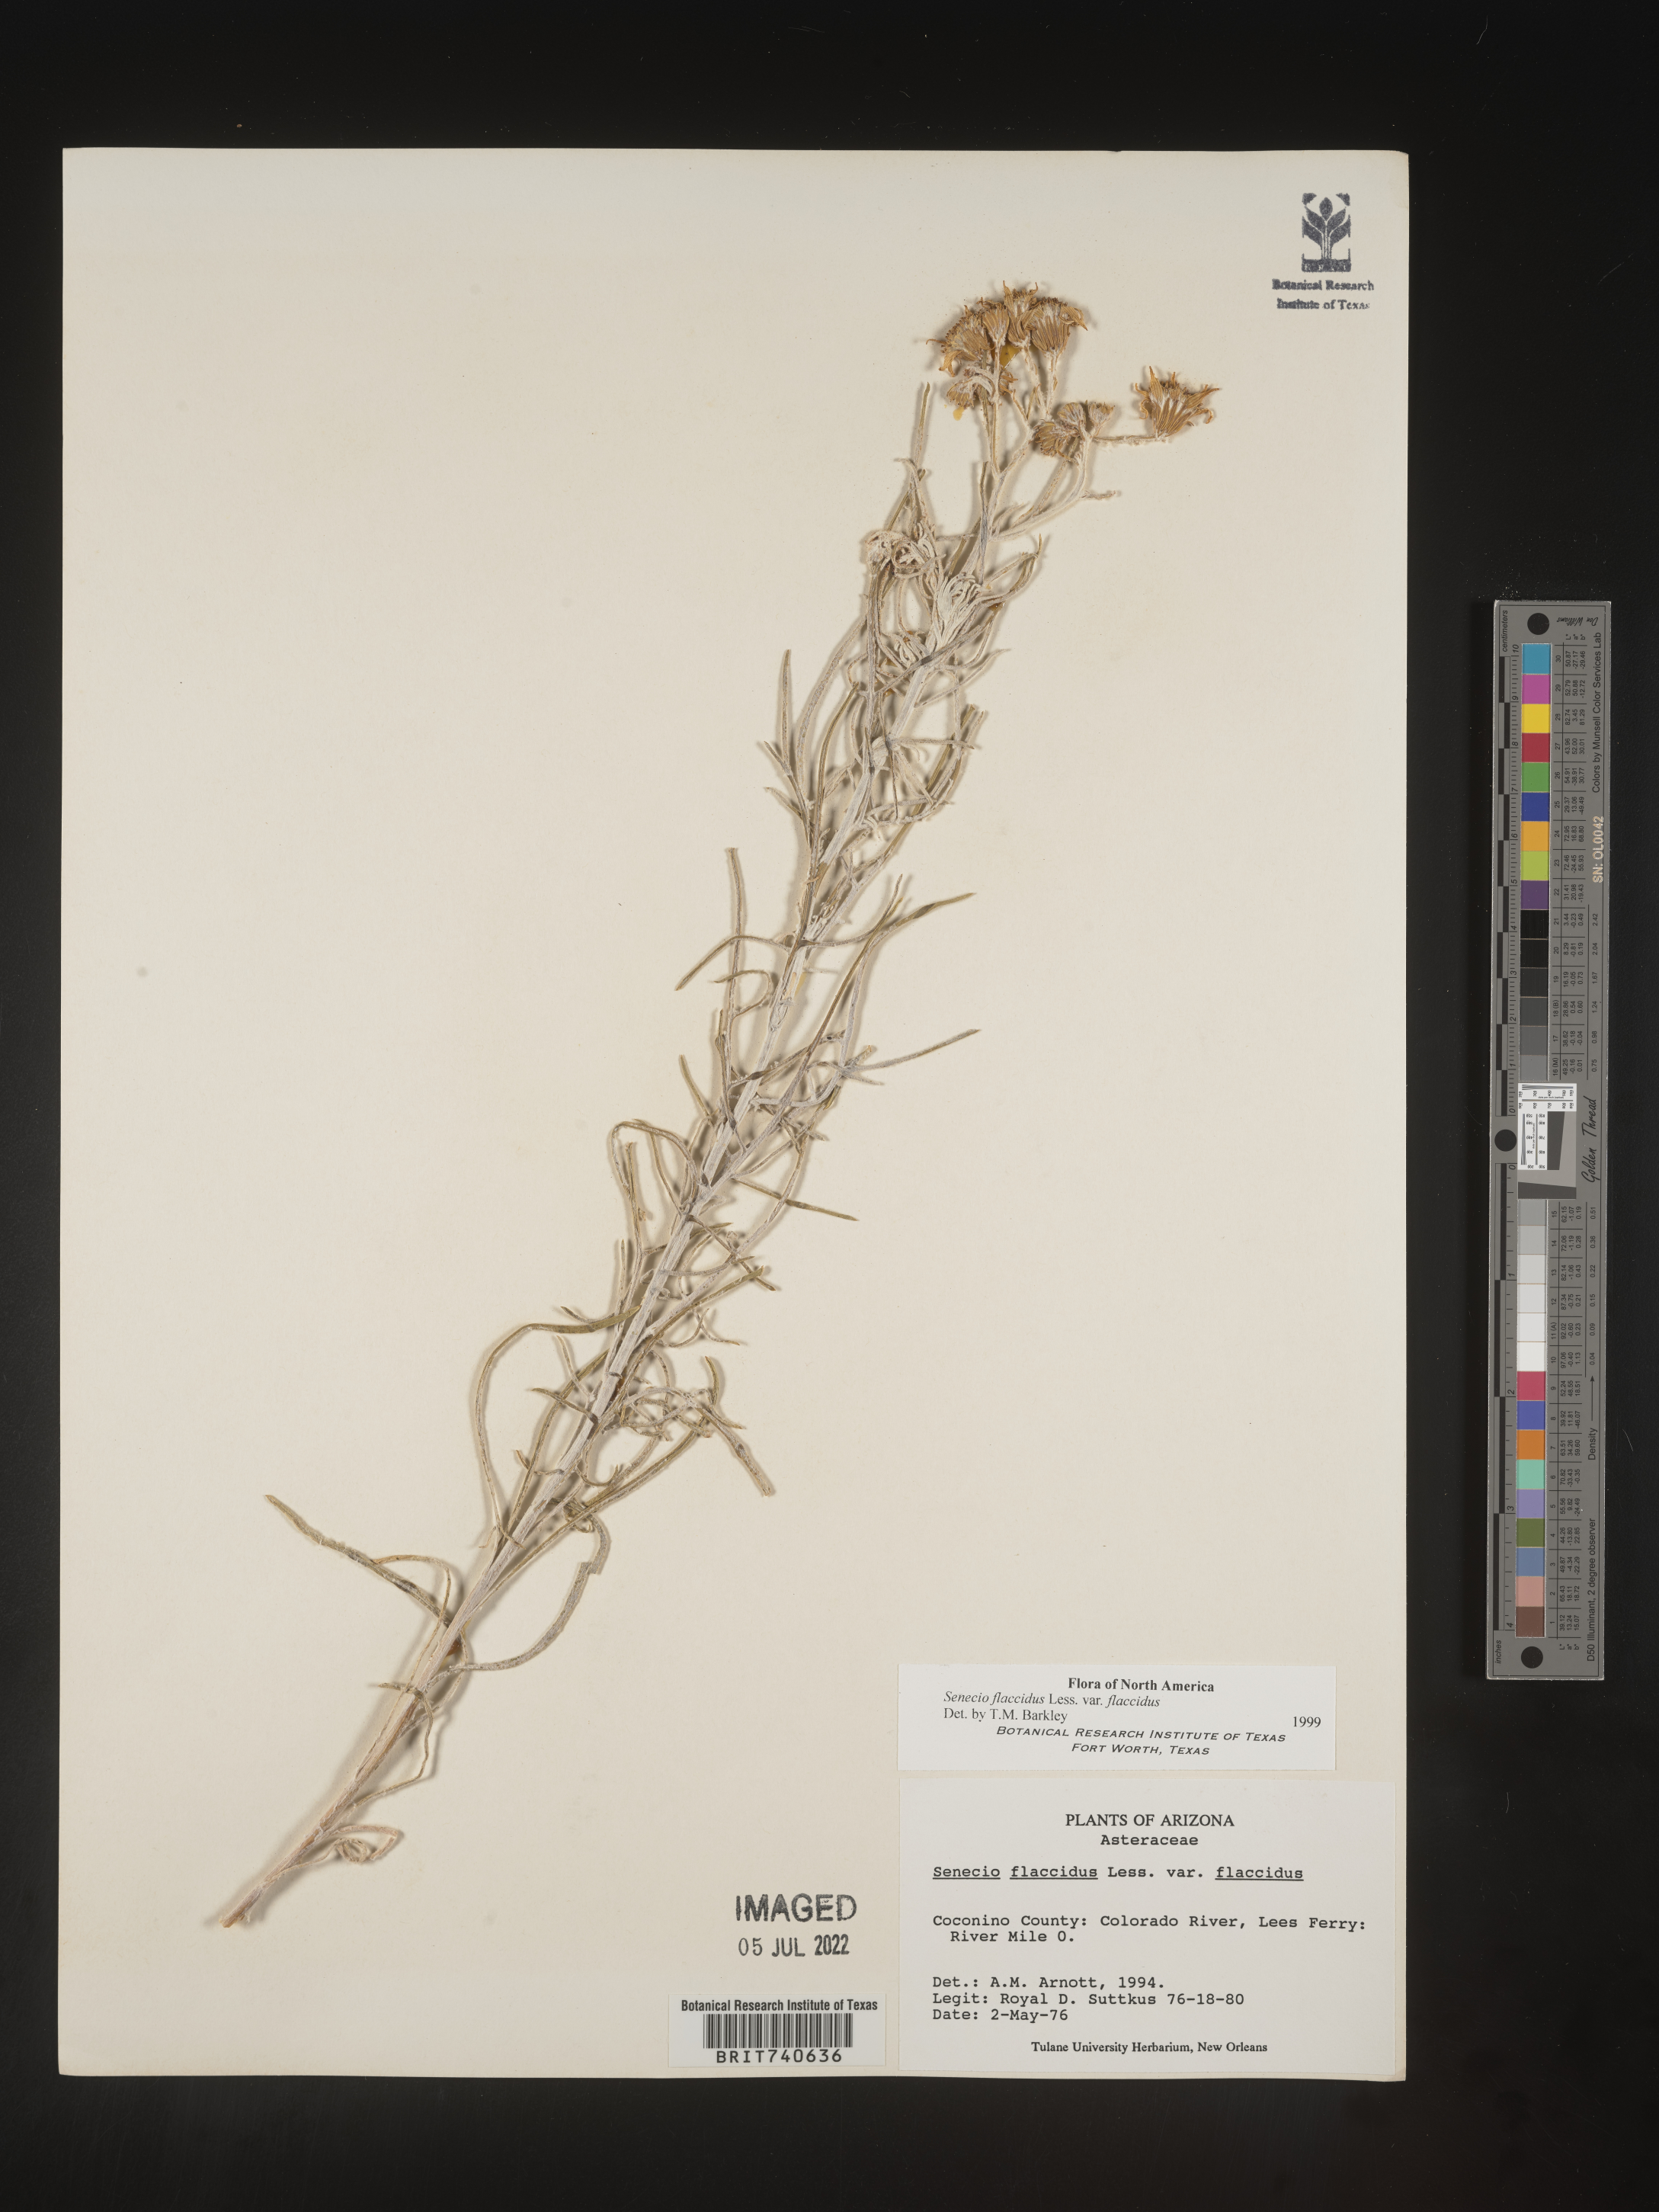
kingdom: Plantae
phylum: Tracheophyta
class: Magnoliopsida
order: Asterales
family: Asteraceae
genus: Senecio
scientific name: Senecio flaccidus
